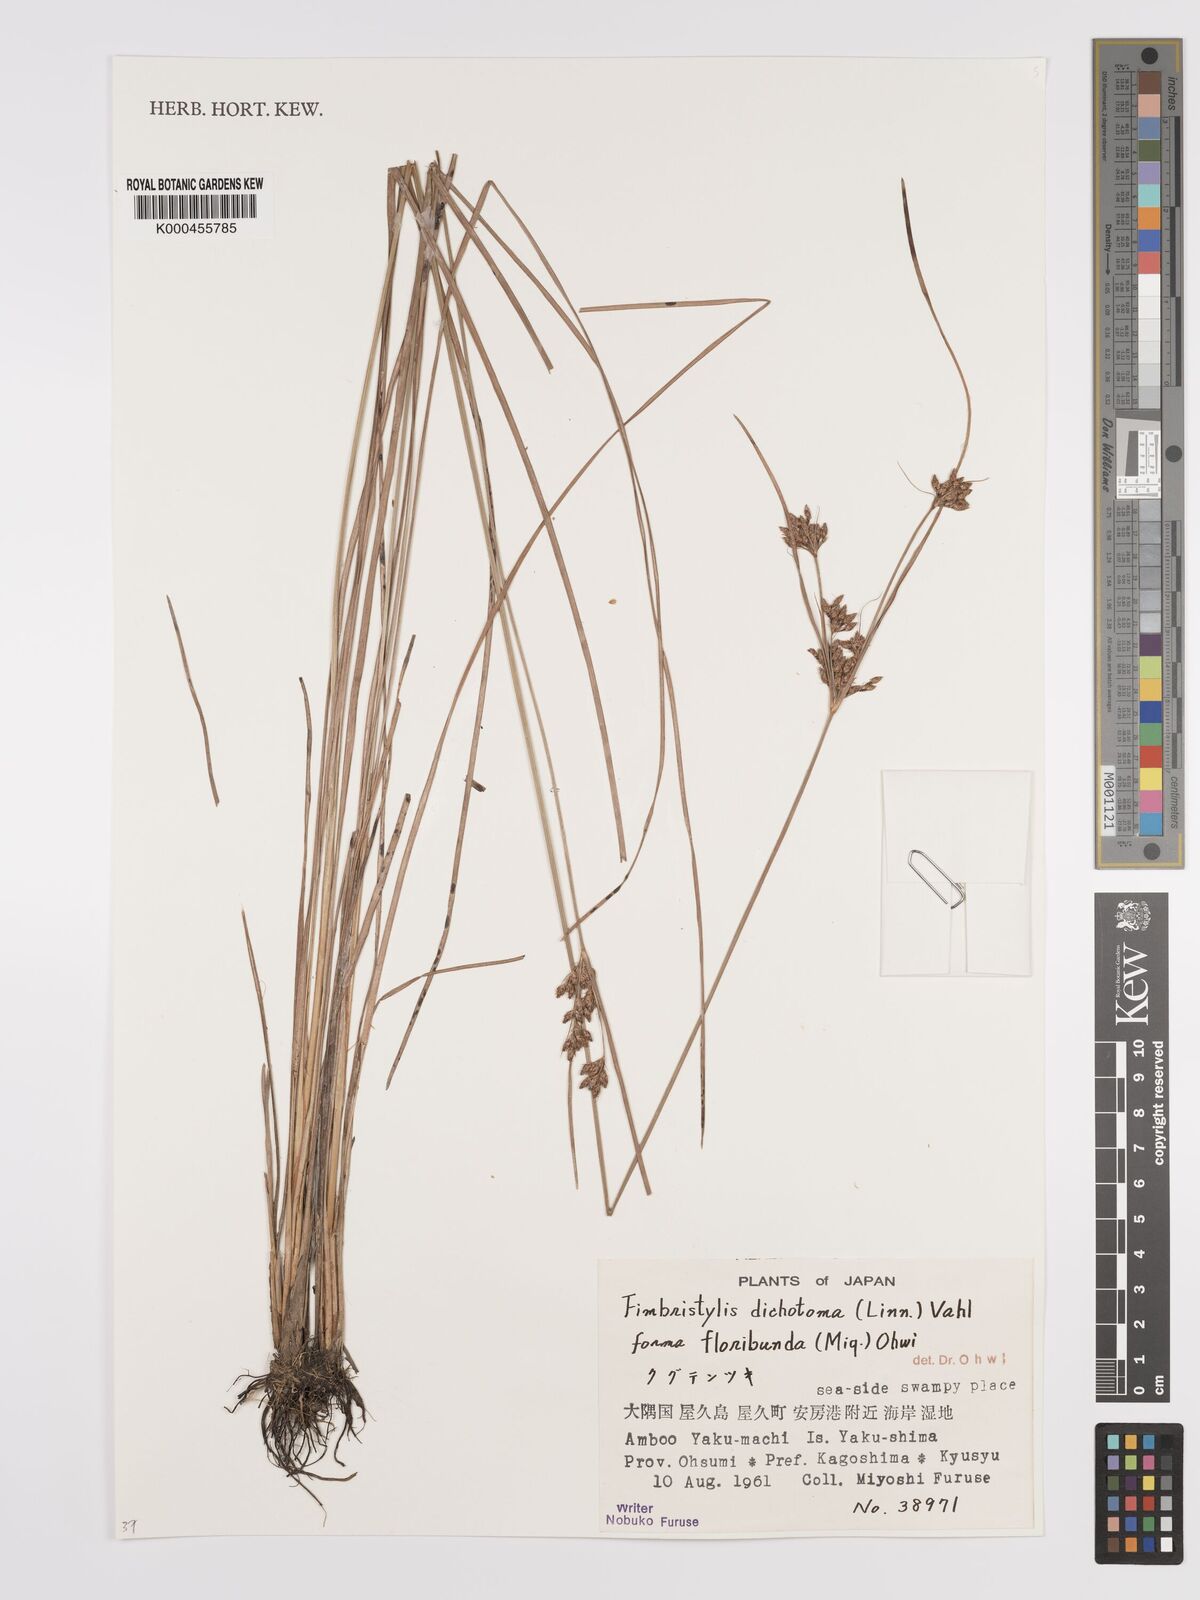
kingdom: Plantae
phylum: Tracheophyta
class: Liliopsida
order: Poales
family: Cyperaceae
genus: Fimbristylis
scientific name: Fimbristylis dichotoma
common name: Forked fimbry
